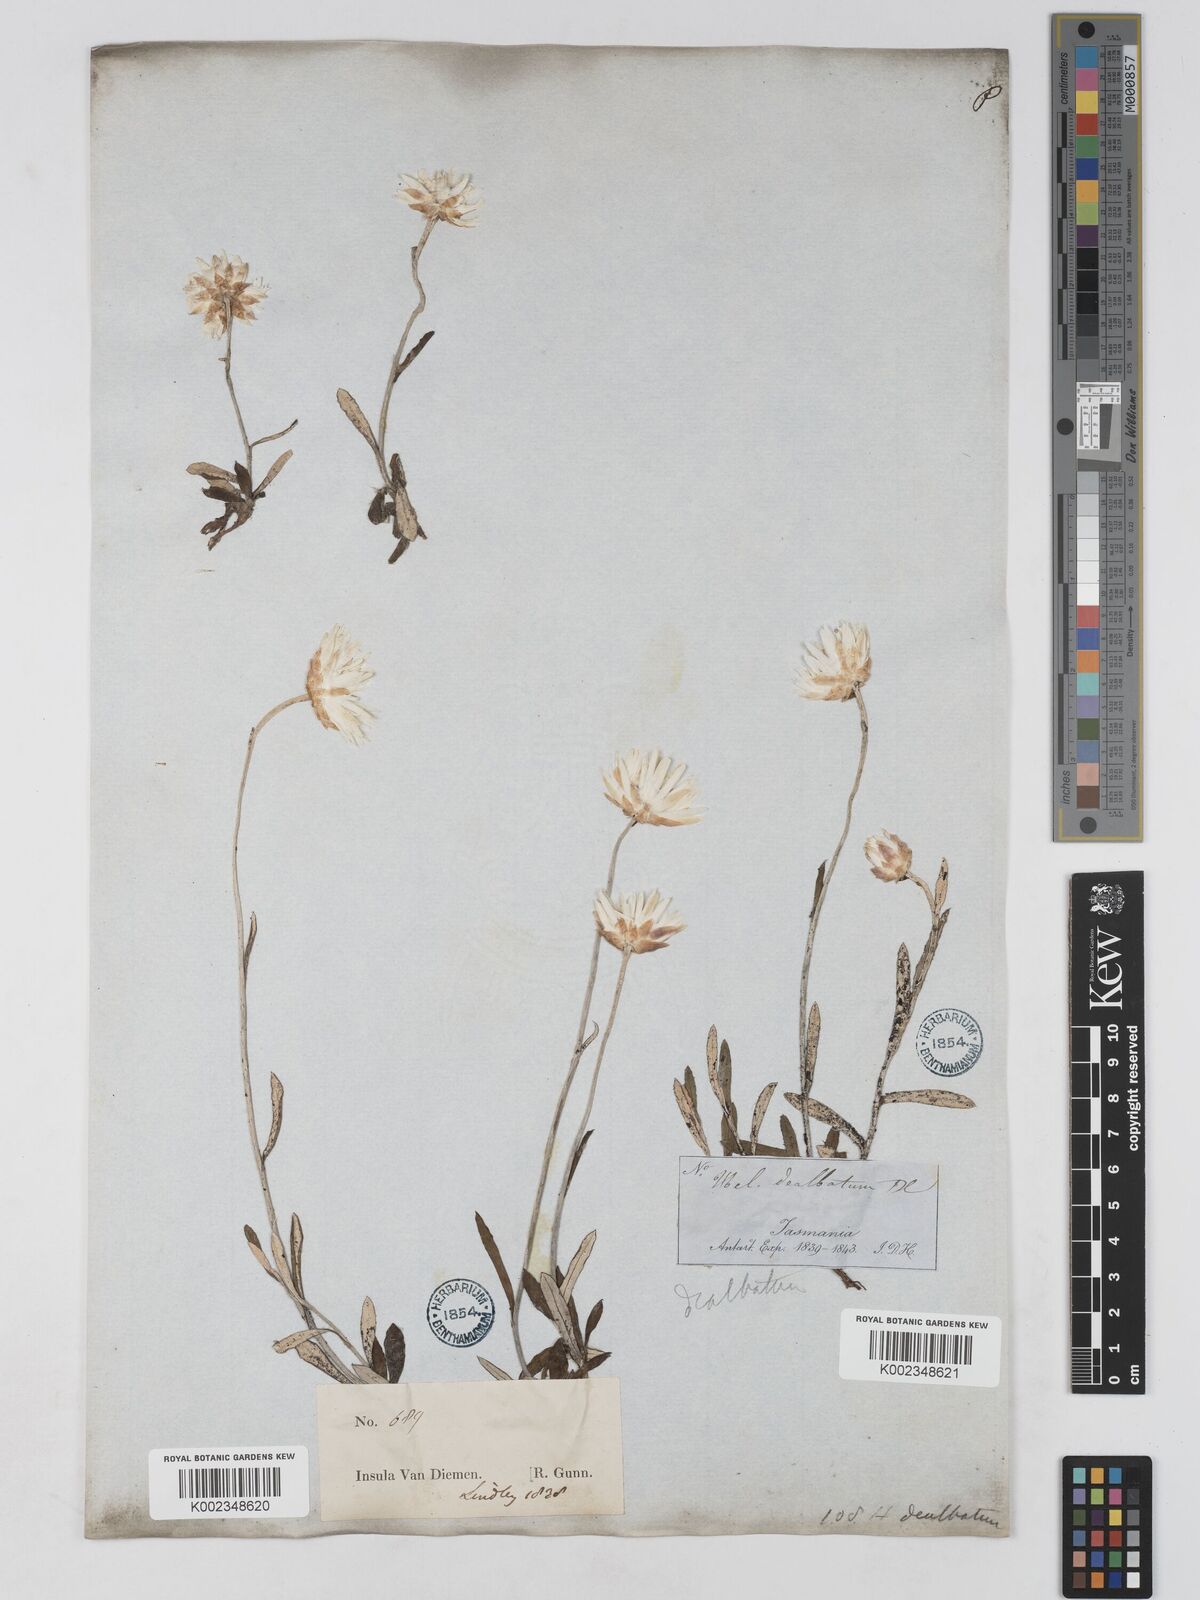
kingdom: Plantae
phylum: Tracheophyta
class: Magnoliopsida
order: Asterales
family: Asteraceae
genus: Argentipallium
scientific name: Argentipallium dealbatum
